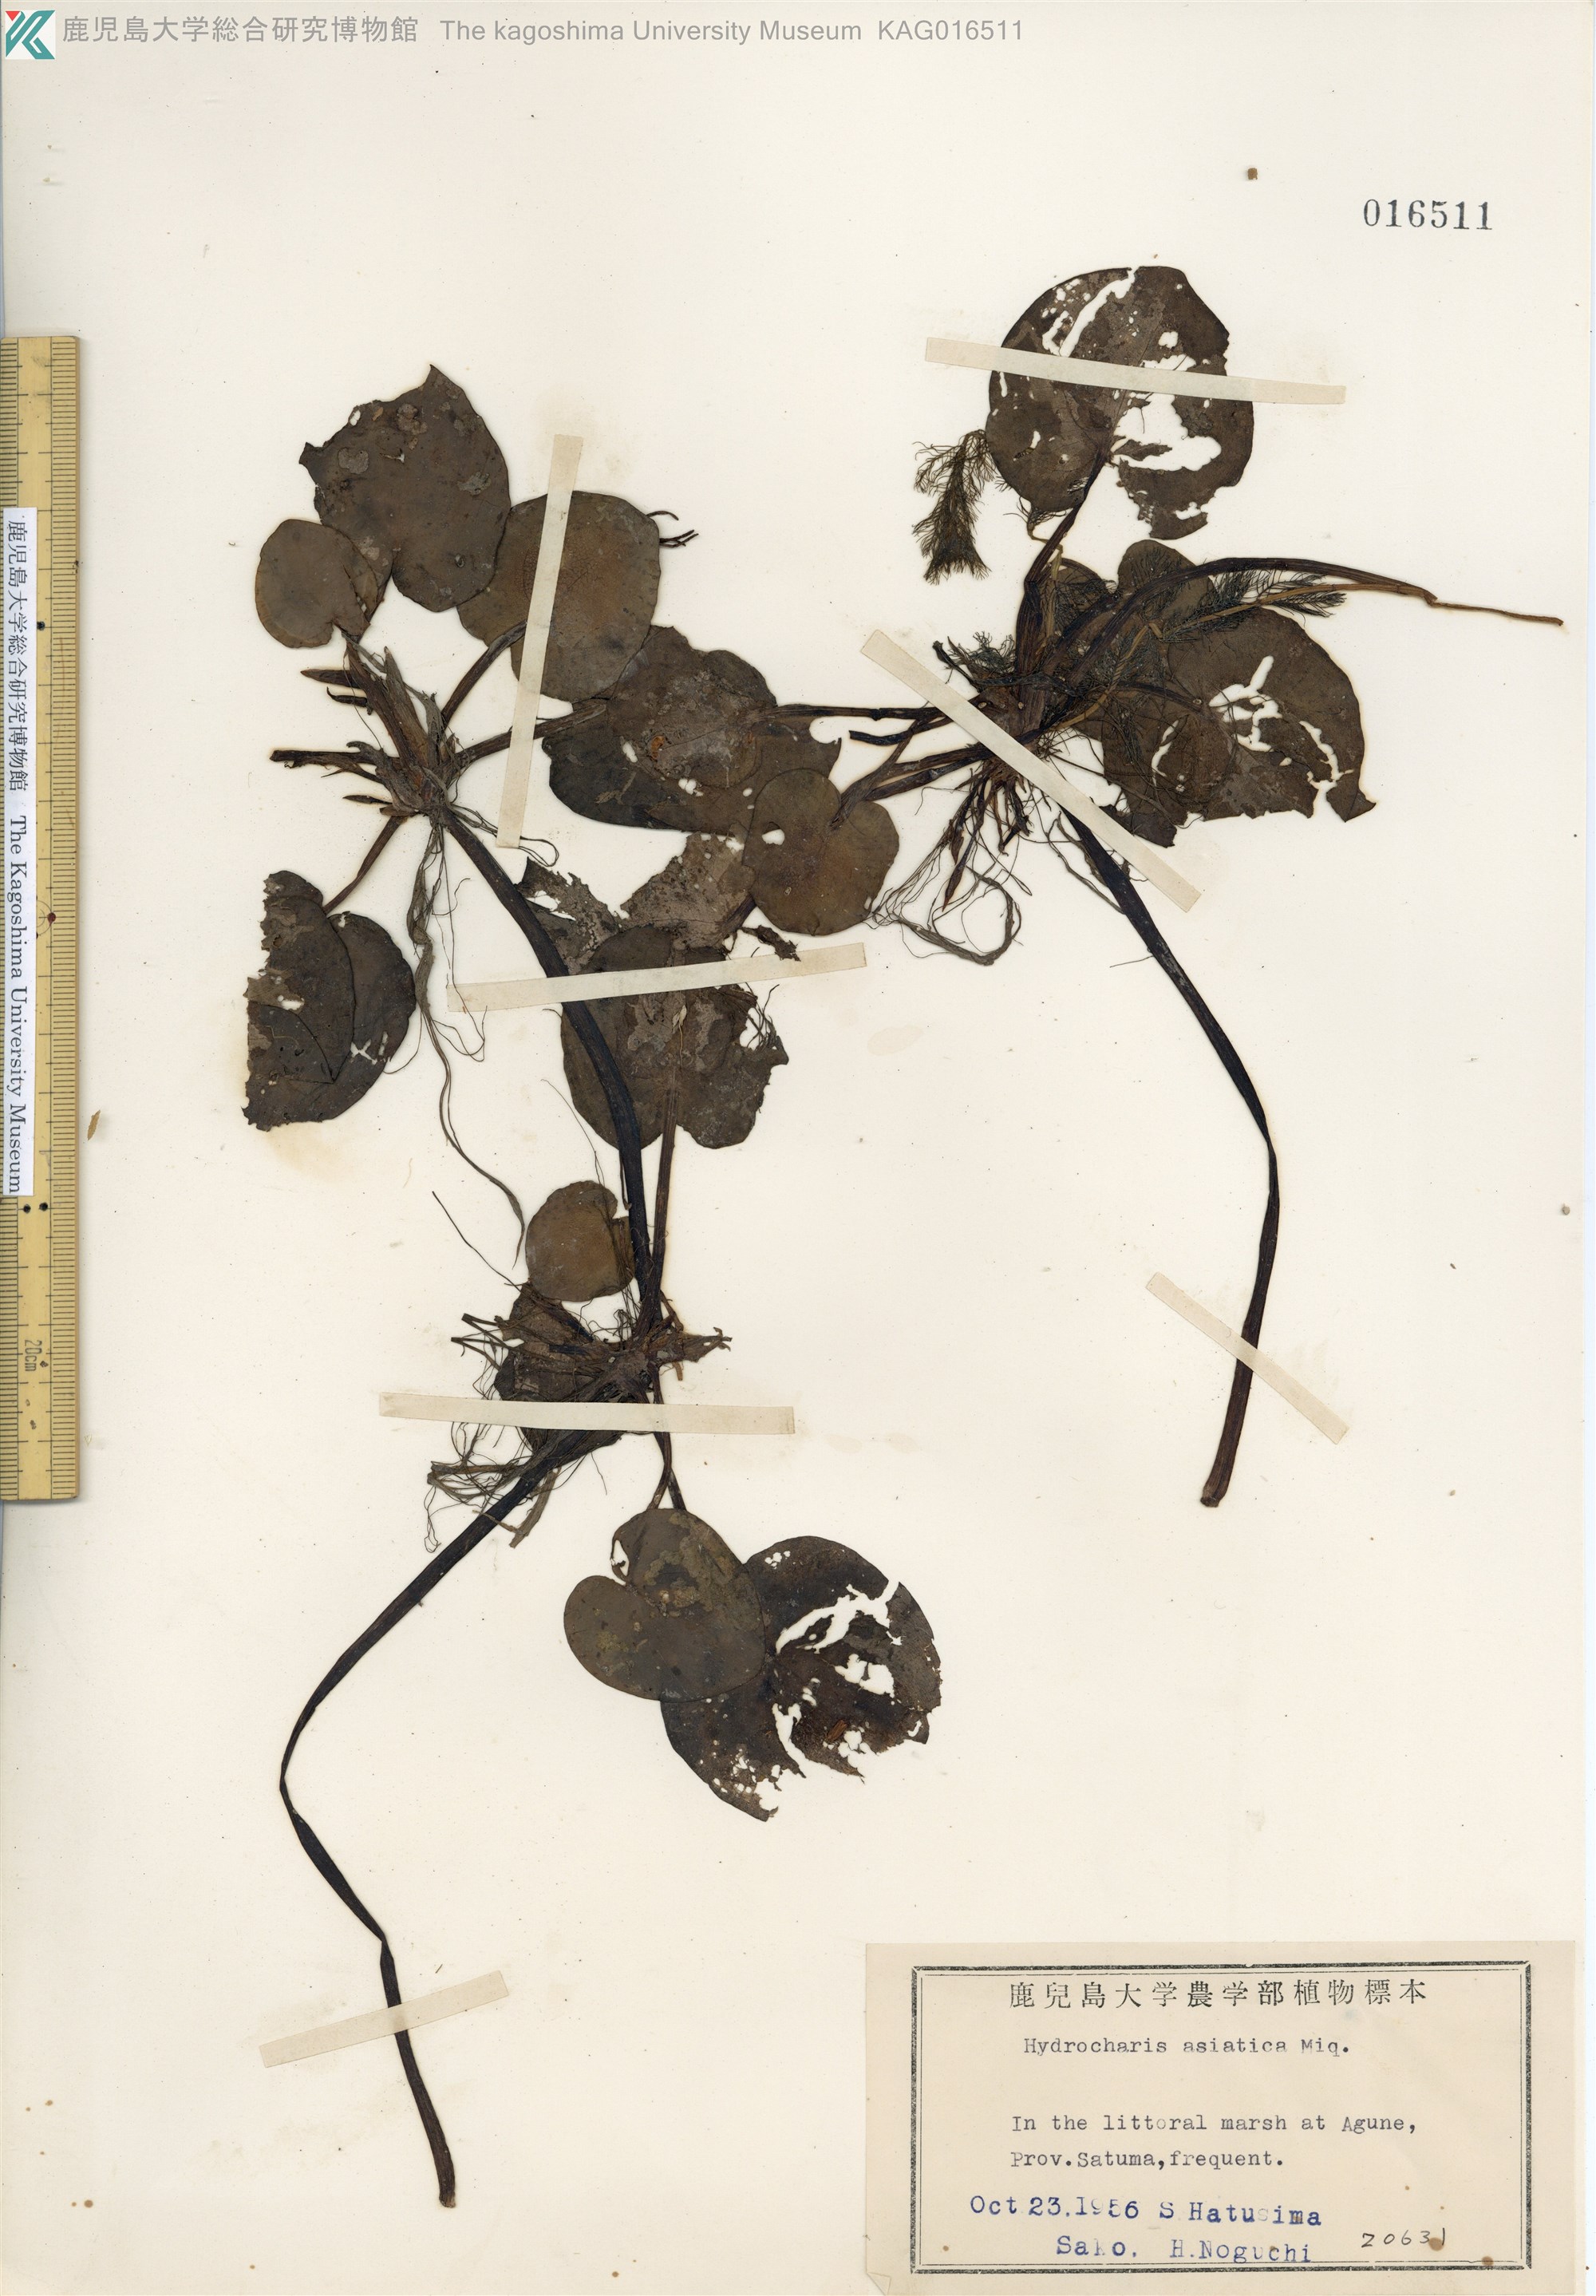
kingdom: Plantae
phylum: Tracheophyta
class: Liliopsida
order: Alismatales
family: Hydrocharitaceae
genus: Hydrocharis
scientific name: Hydrocharis dubia
